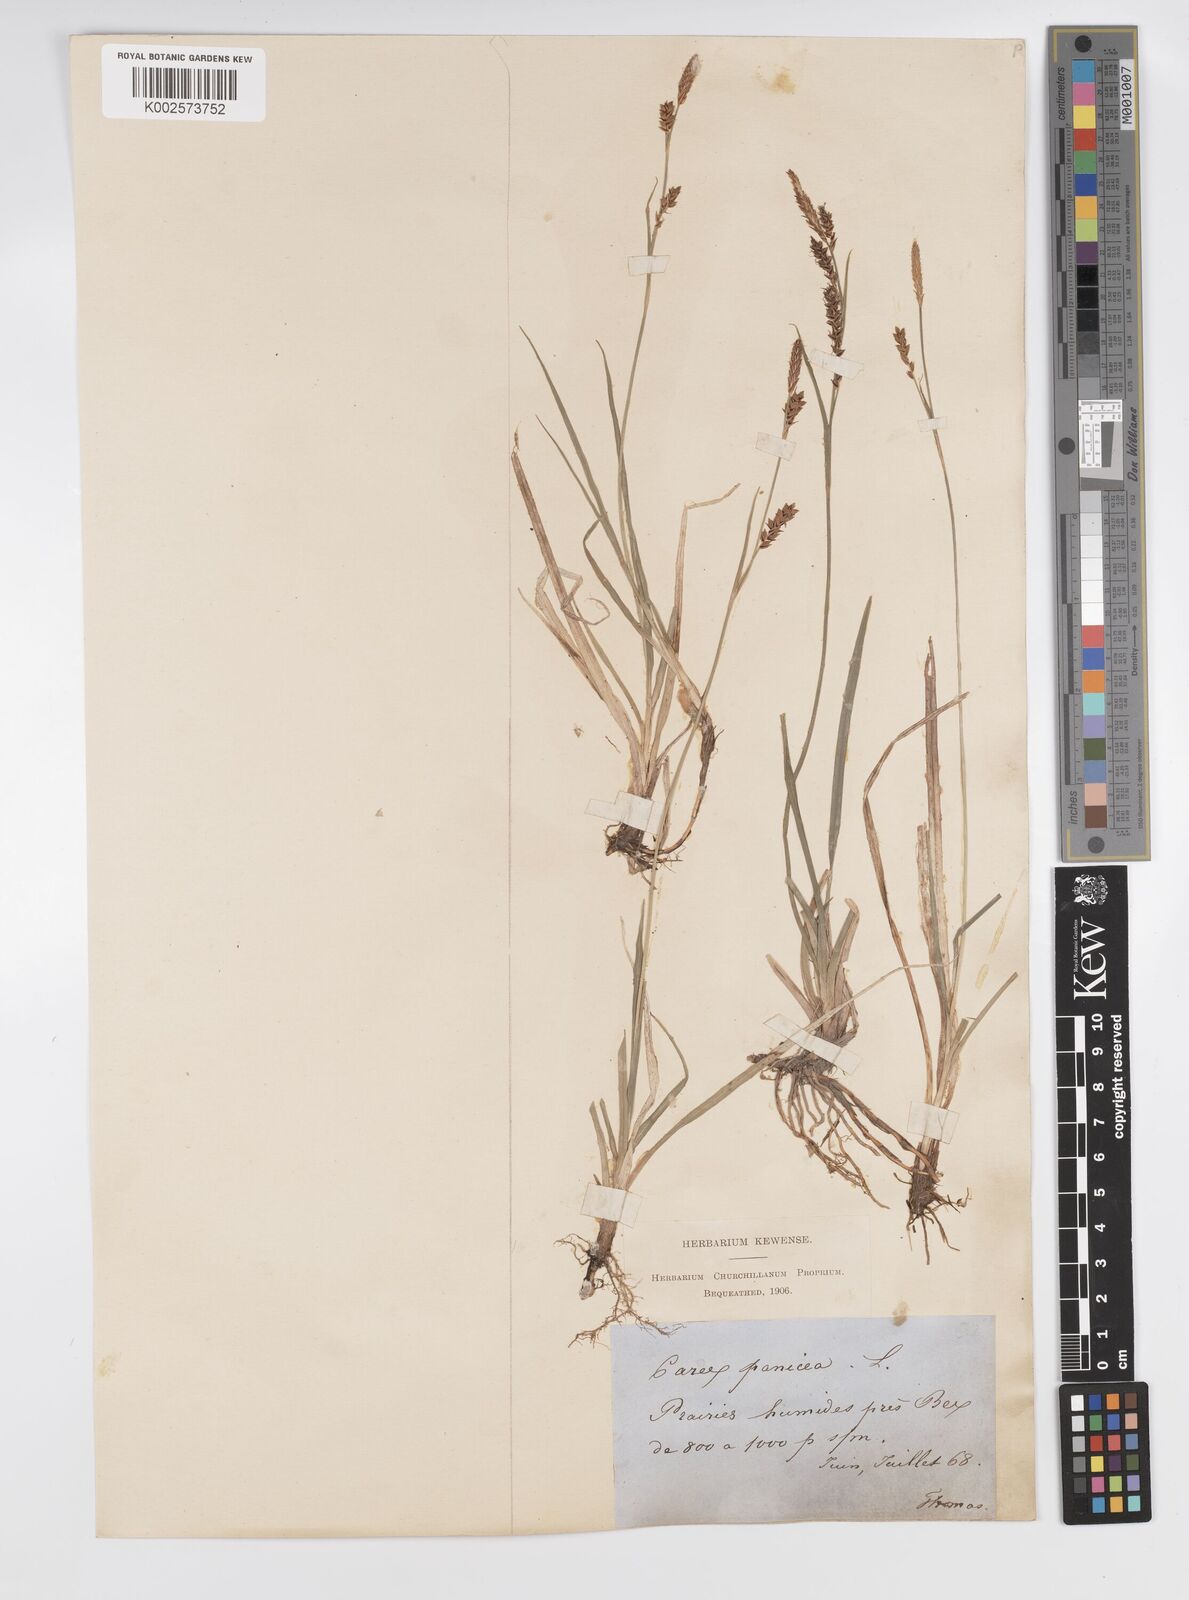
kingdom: Plantae
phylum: Tracheophyta
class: Liliopsida
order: Poales
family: Cyperaceae
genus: Carex
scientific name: Carex panicea
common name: Carnation sedge
